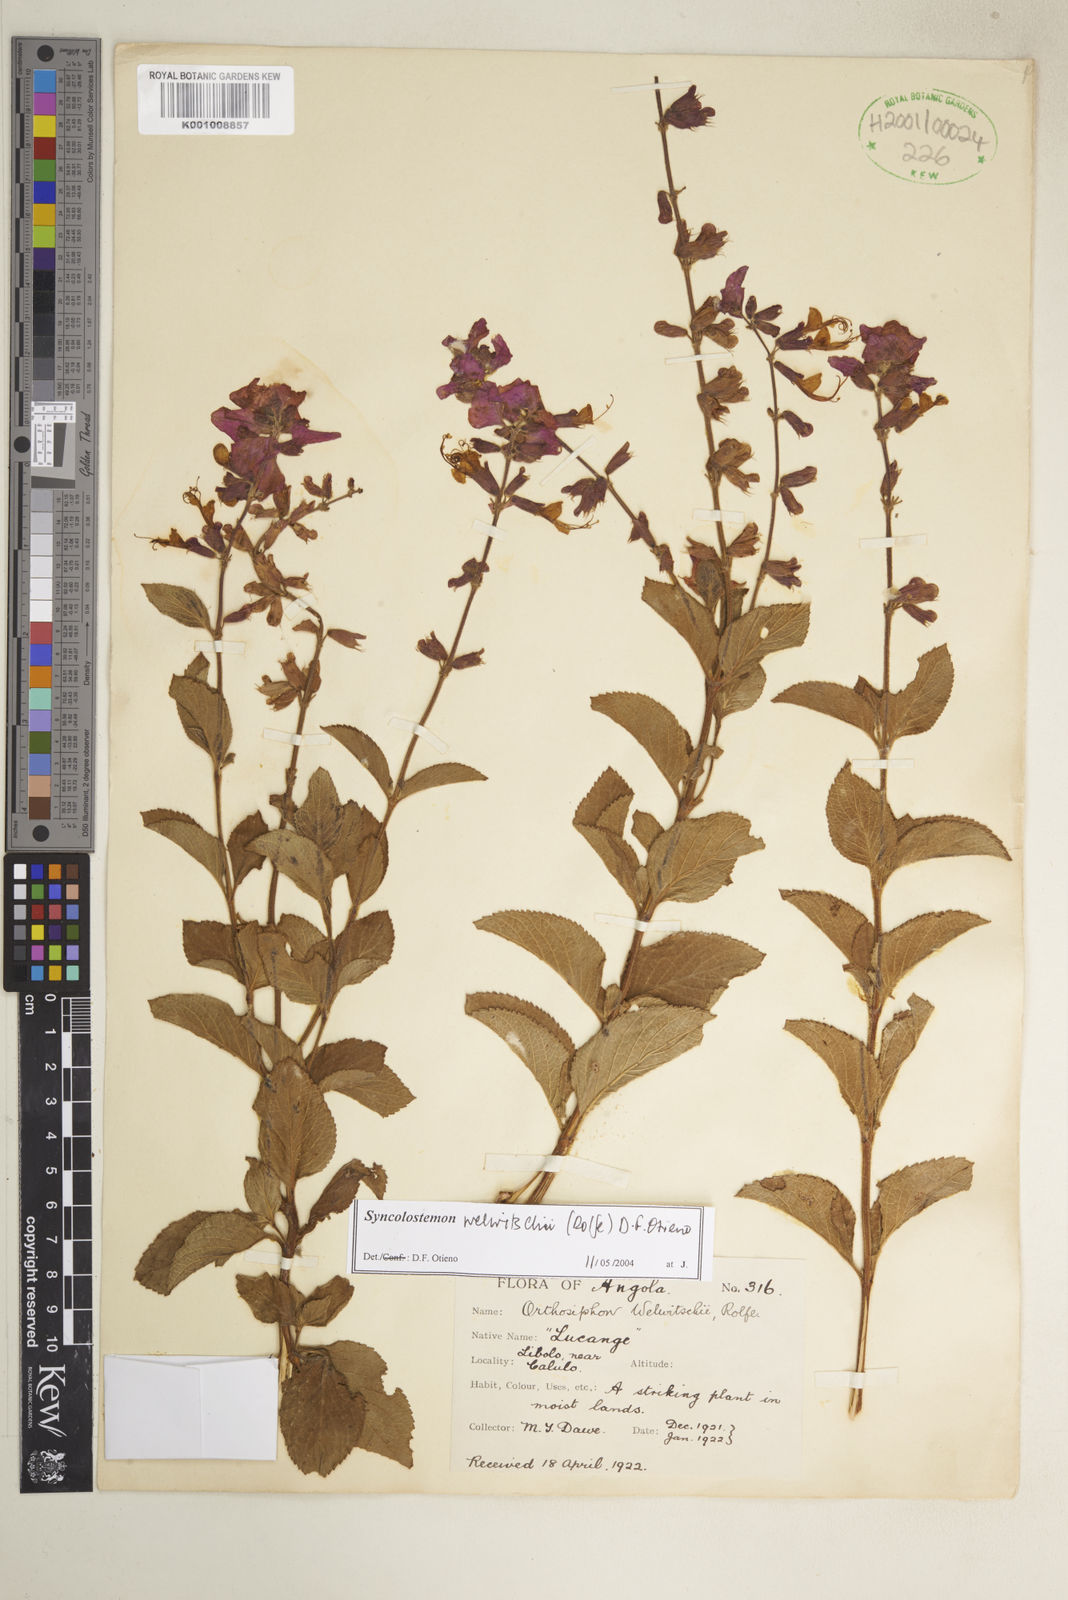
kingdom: Plantae
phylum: Tracheophyta
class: Magnoliopsida
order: Lamiales
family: Lamiaceae
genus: Syncolostemon
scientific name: Syncolostemon welwitschii
